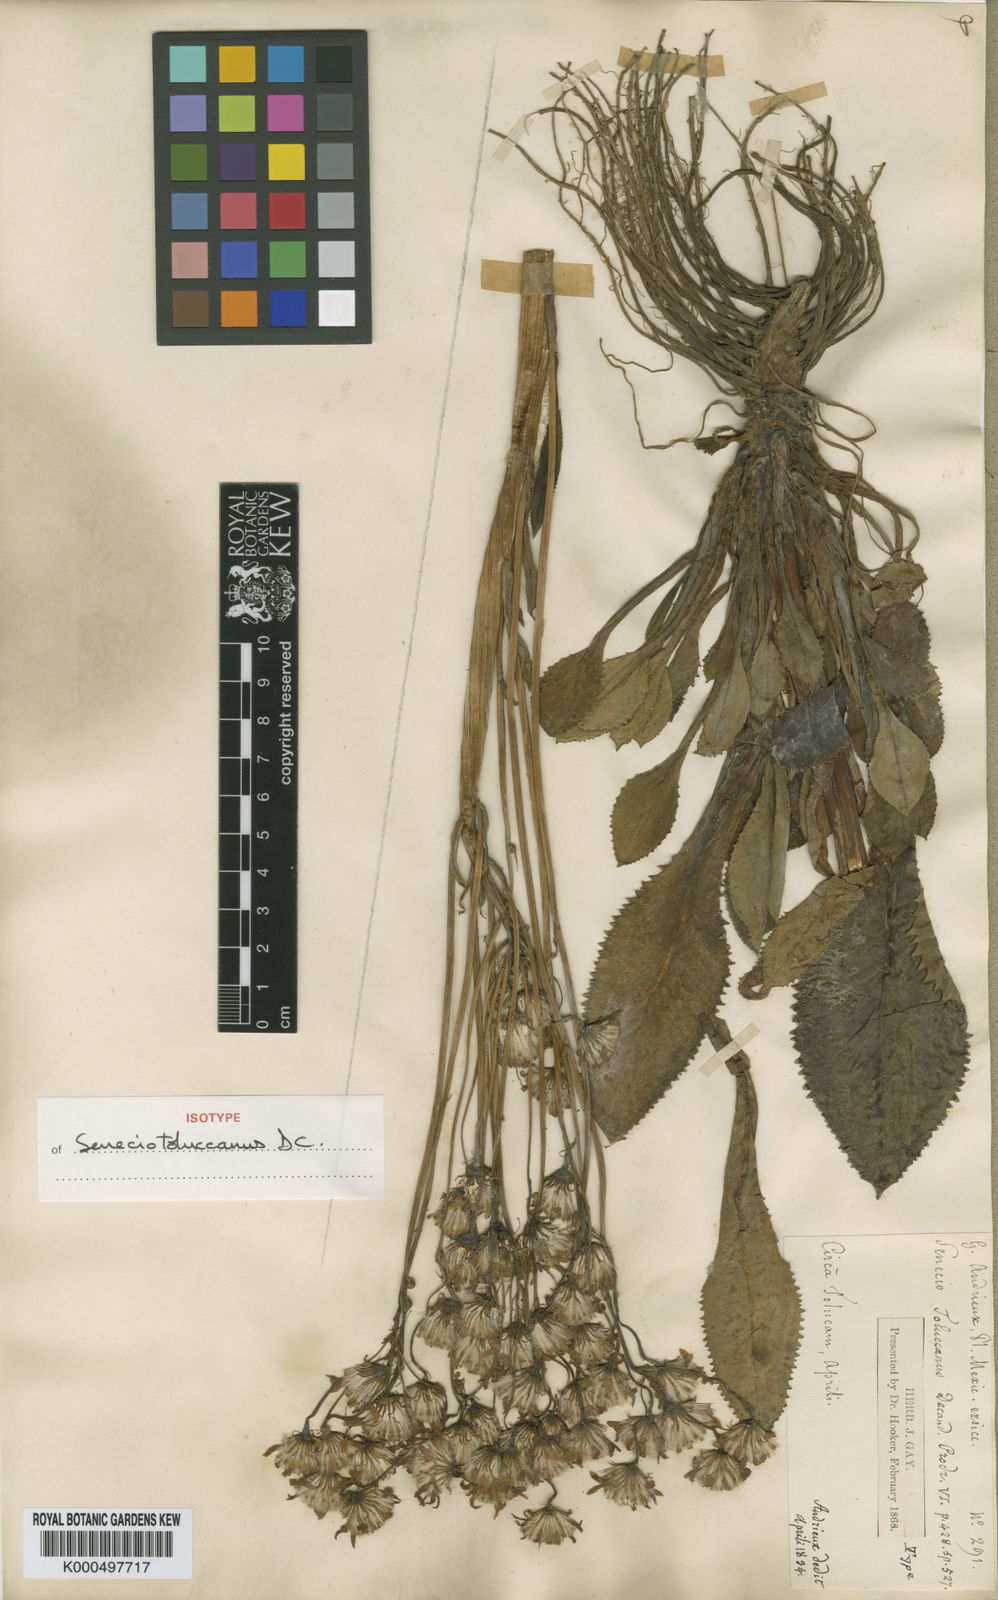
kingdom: Plantae
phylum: Tracheophyta
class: Magnoliopsida
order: Asterales
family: Asteraceae
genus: Packera
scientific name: Packera toluccana
